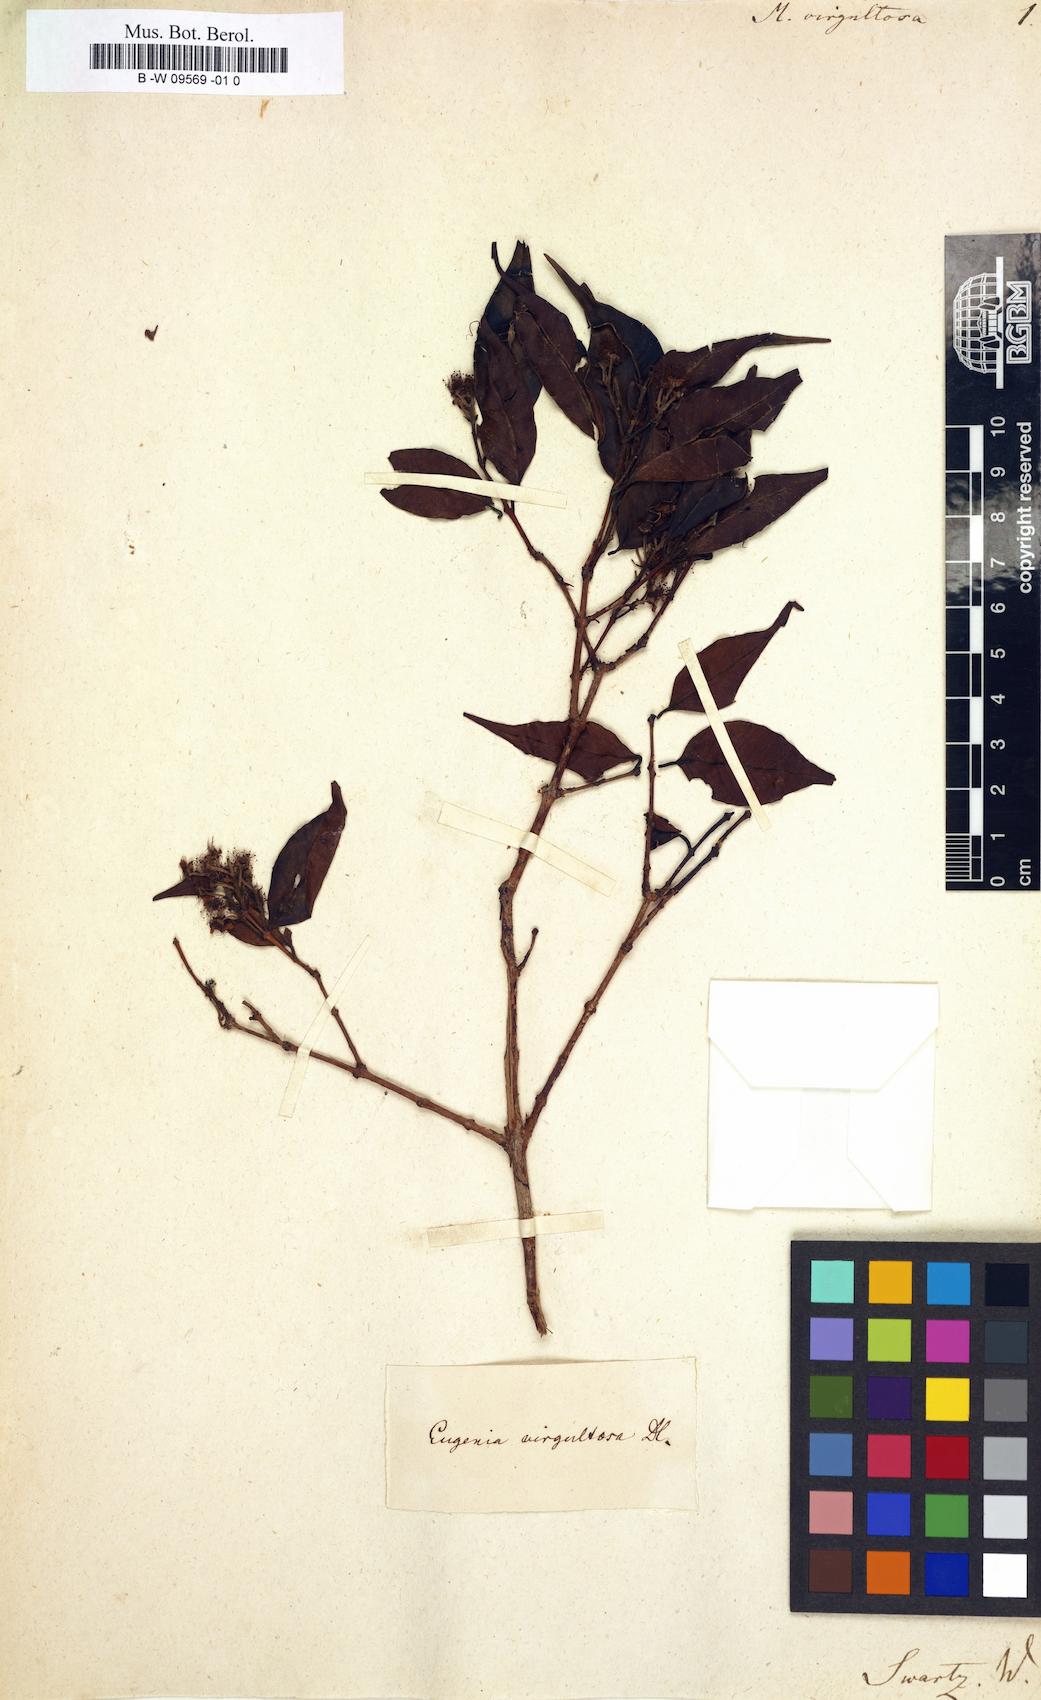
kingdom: Plantae
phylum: Tracheophyta
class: Magnoliopsida
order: Myrtales
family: Myrtaceae
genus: Myrtus
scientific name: Myrtus virgultosa
